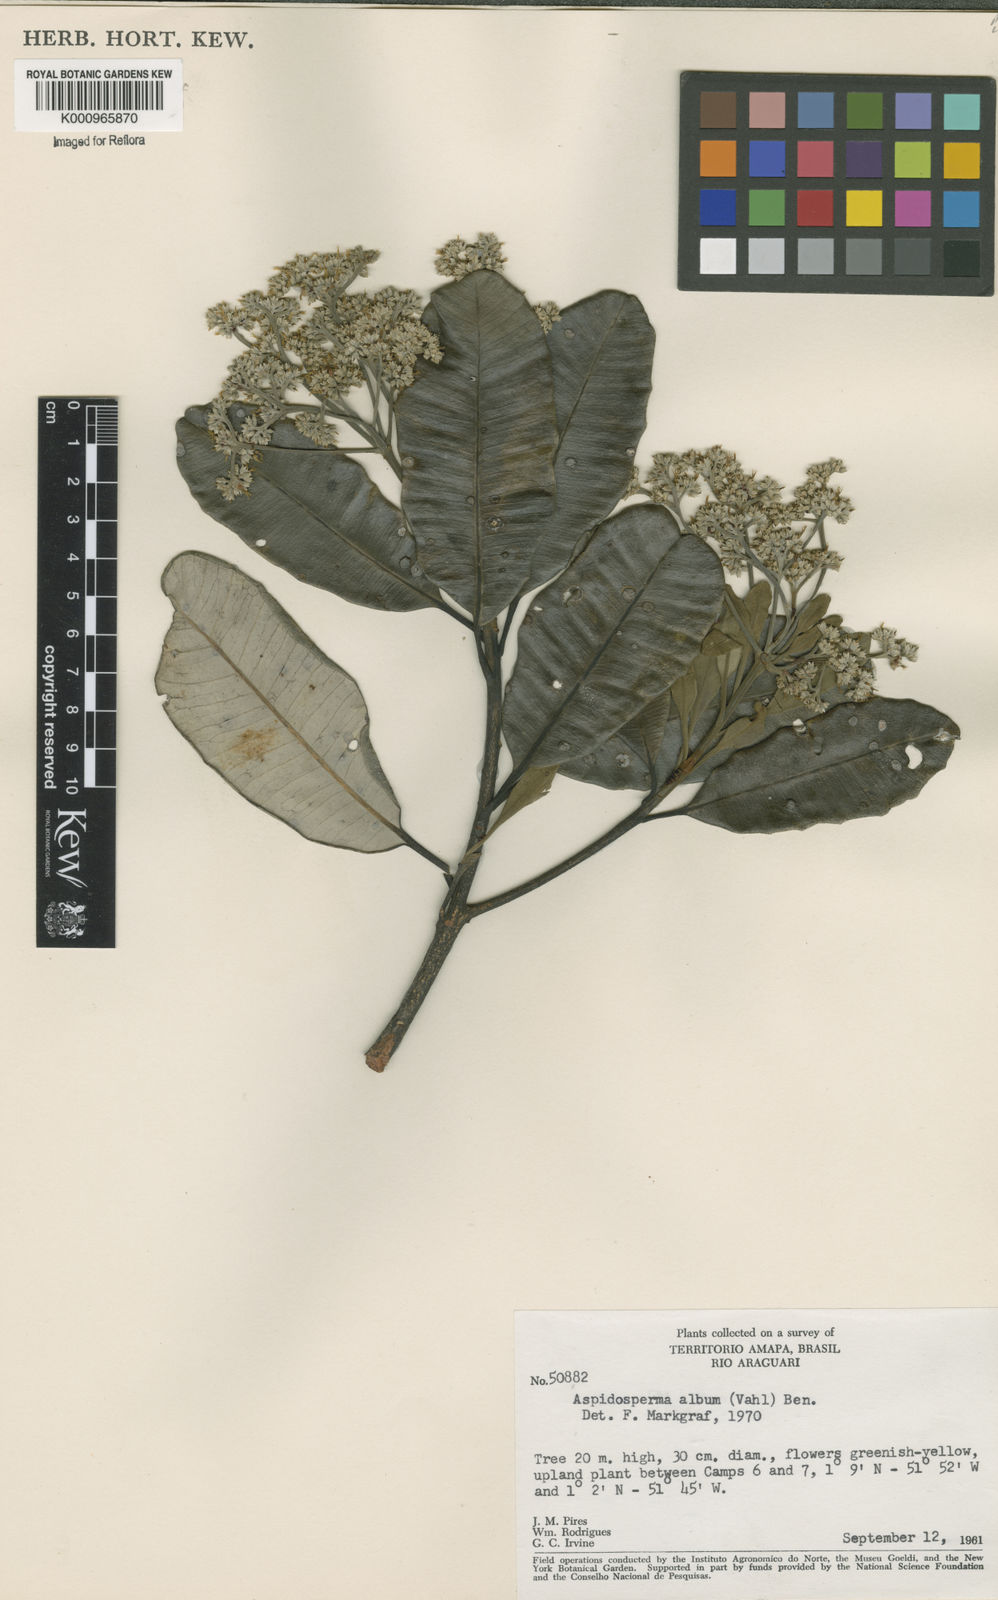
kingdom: Plantae
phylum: Tracheophyta
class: Magnoliopsida
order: Gentianales
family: Apocynaceae
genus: Aspidosperma
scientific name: Aspidosperma album
